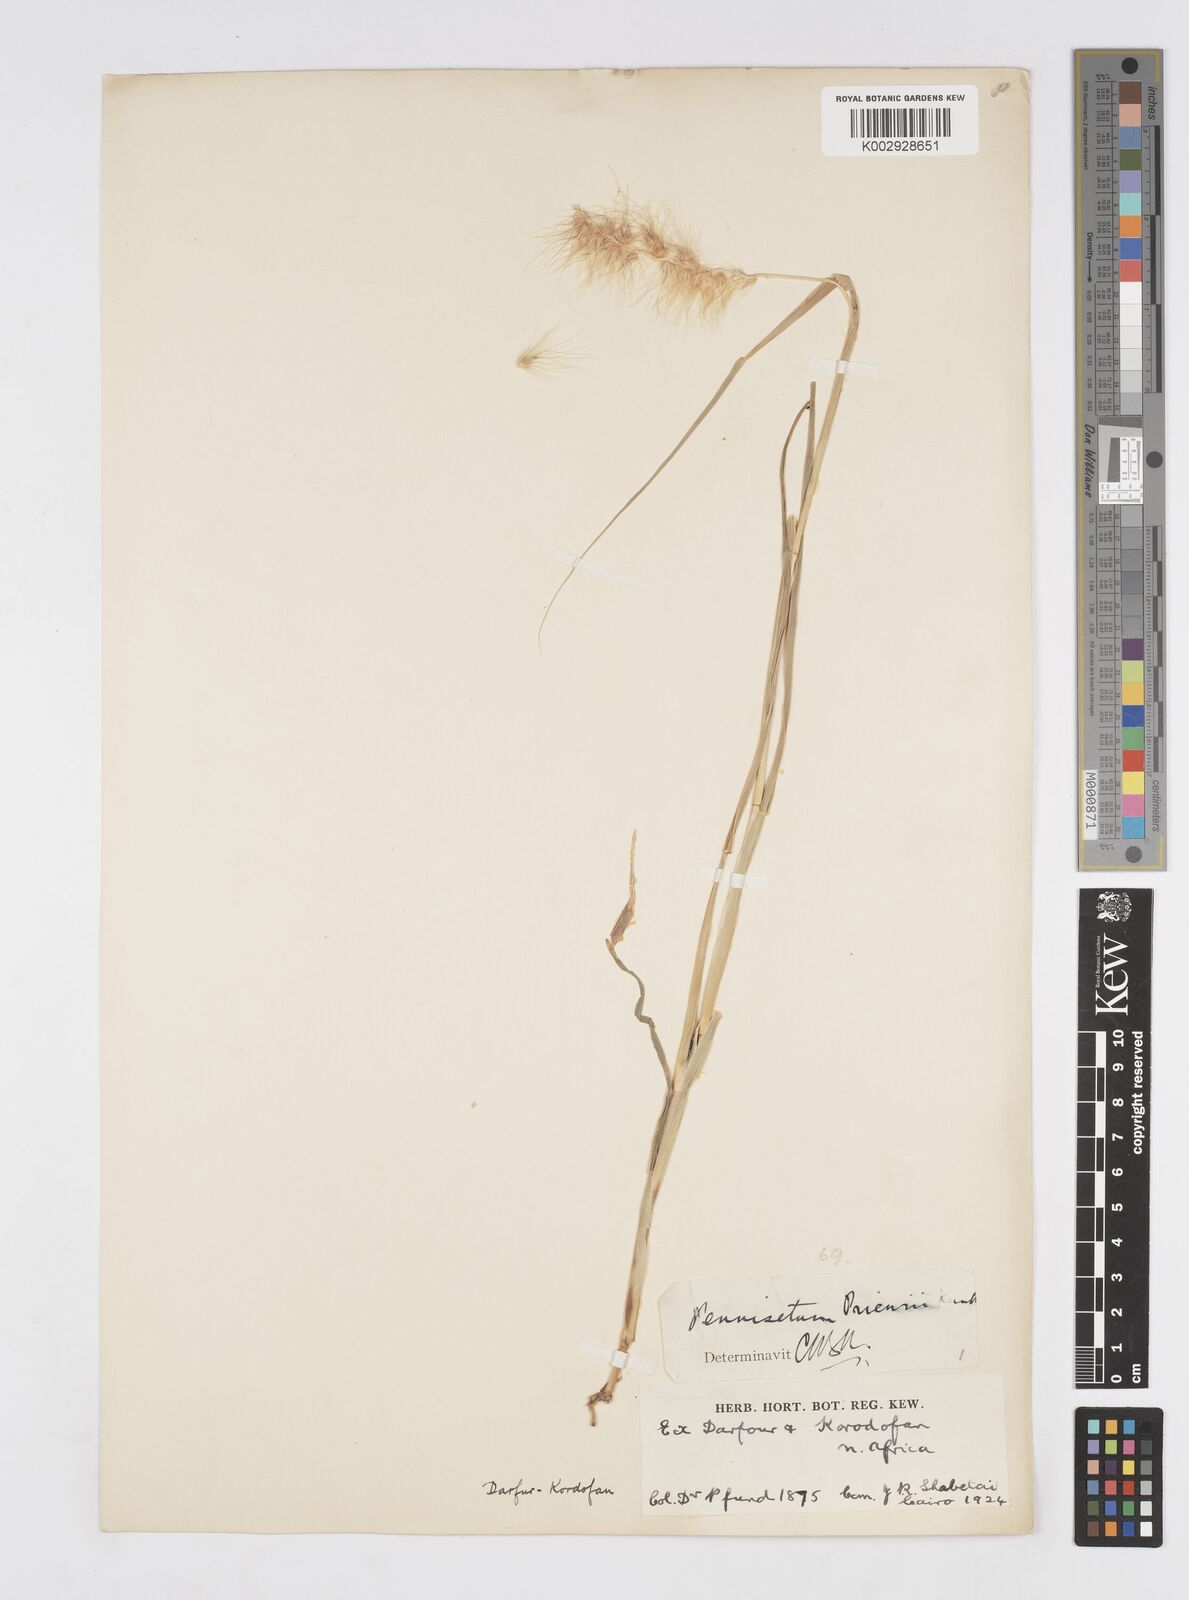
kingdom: Plantae
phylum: Tracheophyta
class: Liliopsida
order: Poales
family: Poaceae
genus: Cenchrus
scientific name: Cenchrus prieurii
